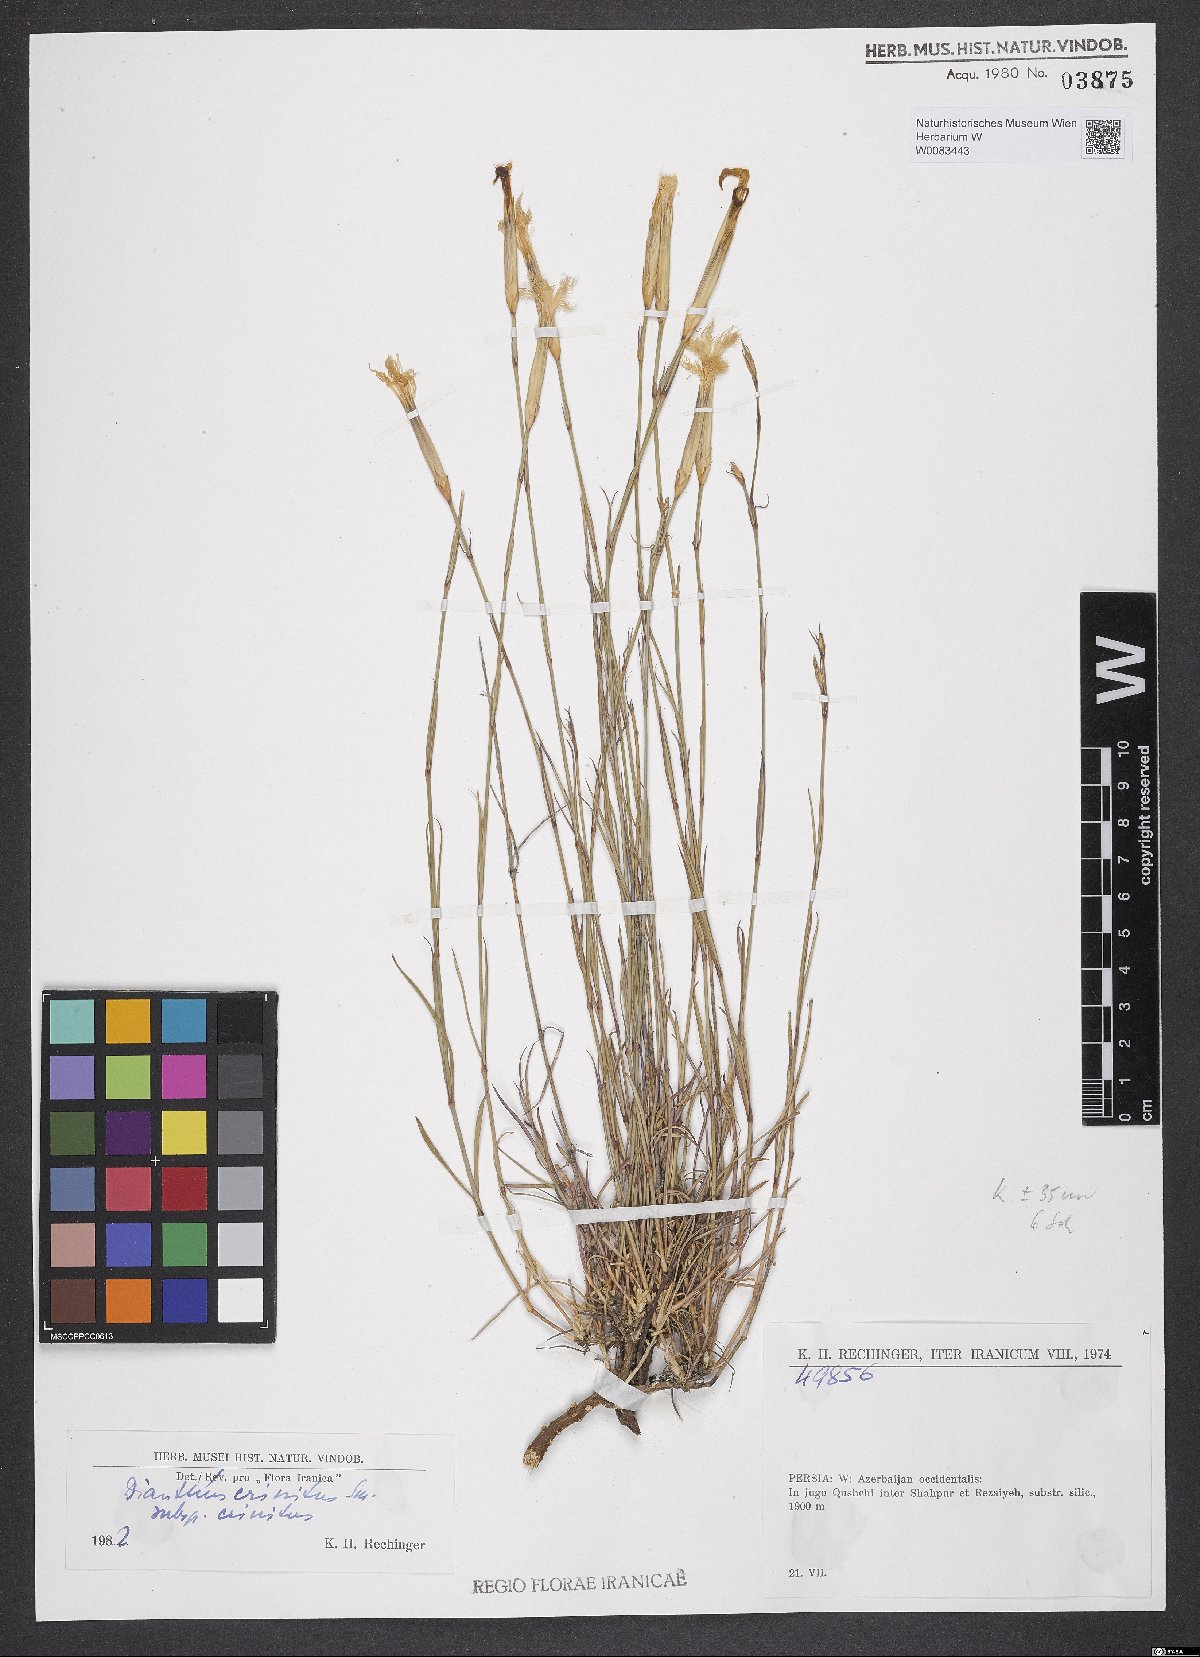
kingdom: Plantae
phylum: Tracheophyta
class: Magnoliopsida
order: Caryophyllales
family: Caryophyllaceae
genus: Dianthus
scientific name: Dianthus crinitus
